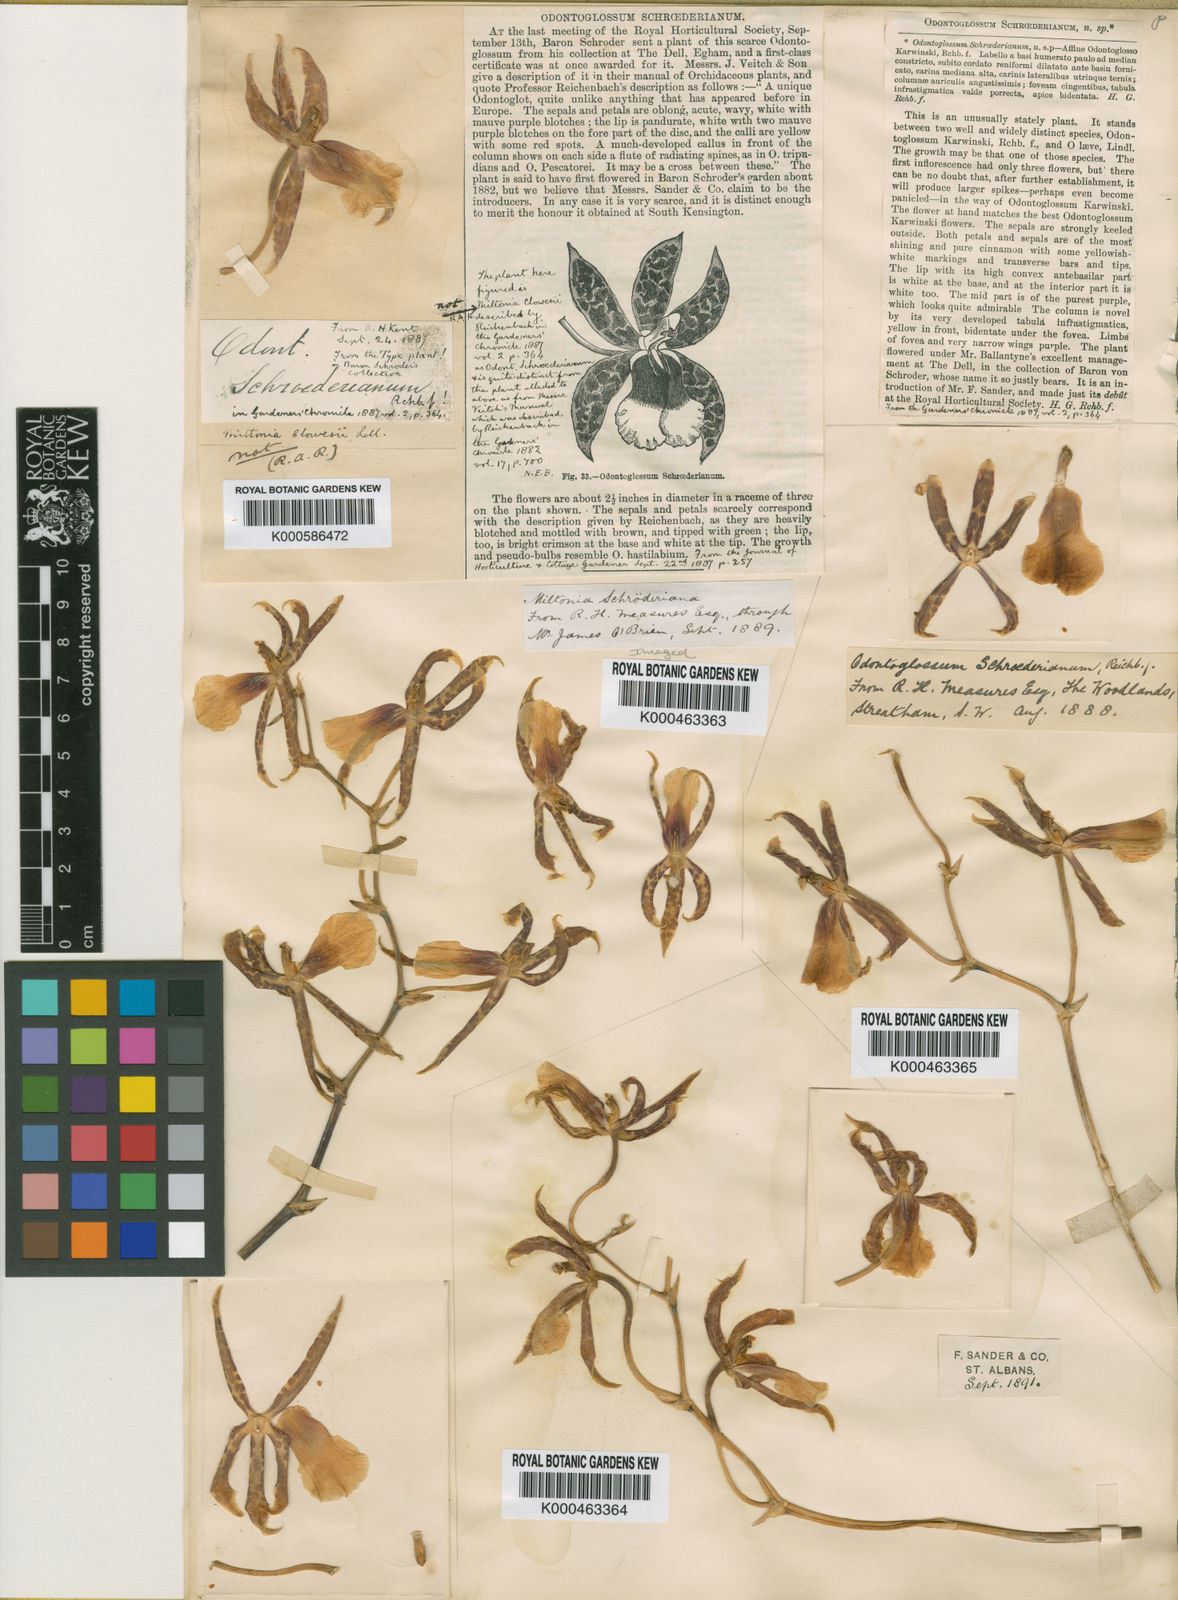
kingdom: Plantae
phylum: Tracheophyta
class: Liliopsida
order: Asparagales
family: Orchidaceae
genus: Oncidium
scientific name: Oncidium schroederianum
